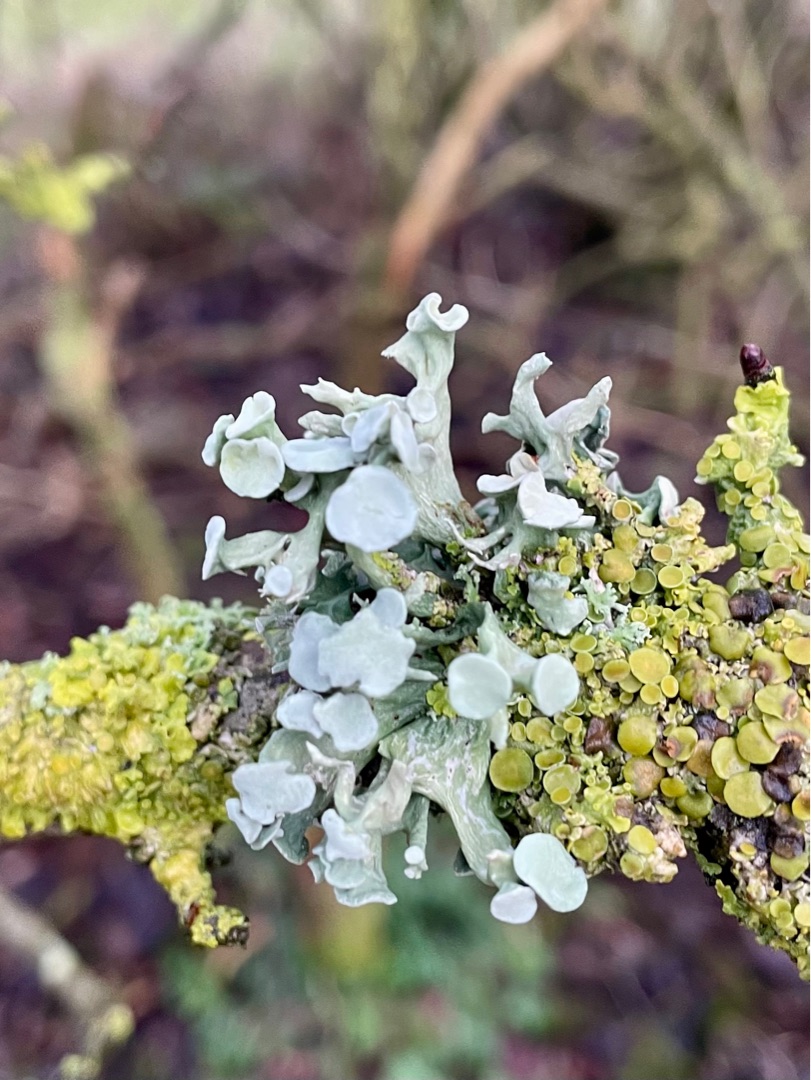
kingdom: Fungi
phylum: Ascomycota
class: Lecanoromycetes
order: Lecanorales
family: Ramalinaceae
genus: Ramalina
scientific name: Ramalina fastigiata
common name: Tue-grenlav
